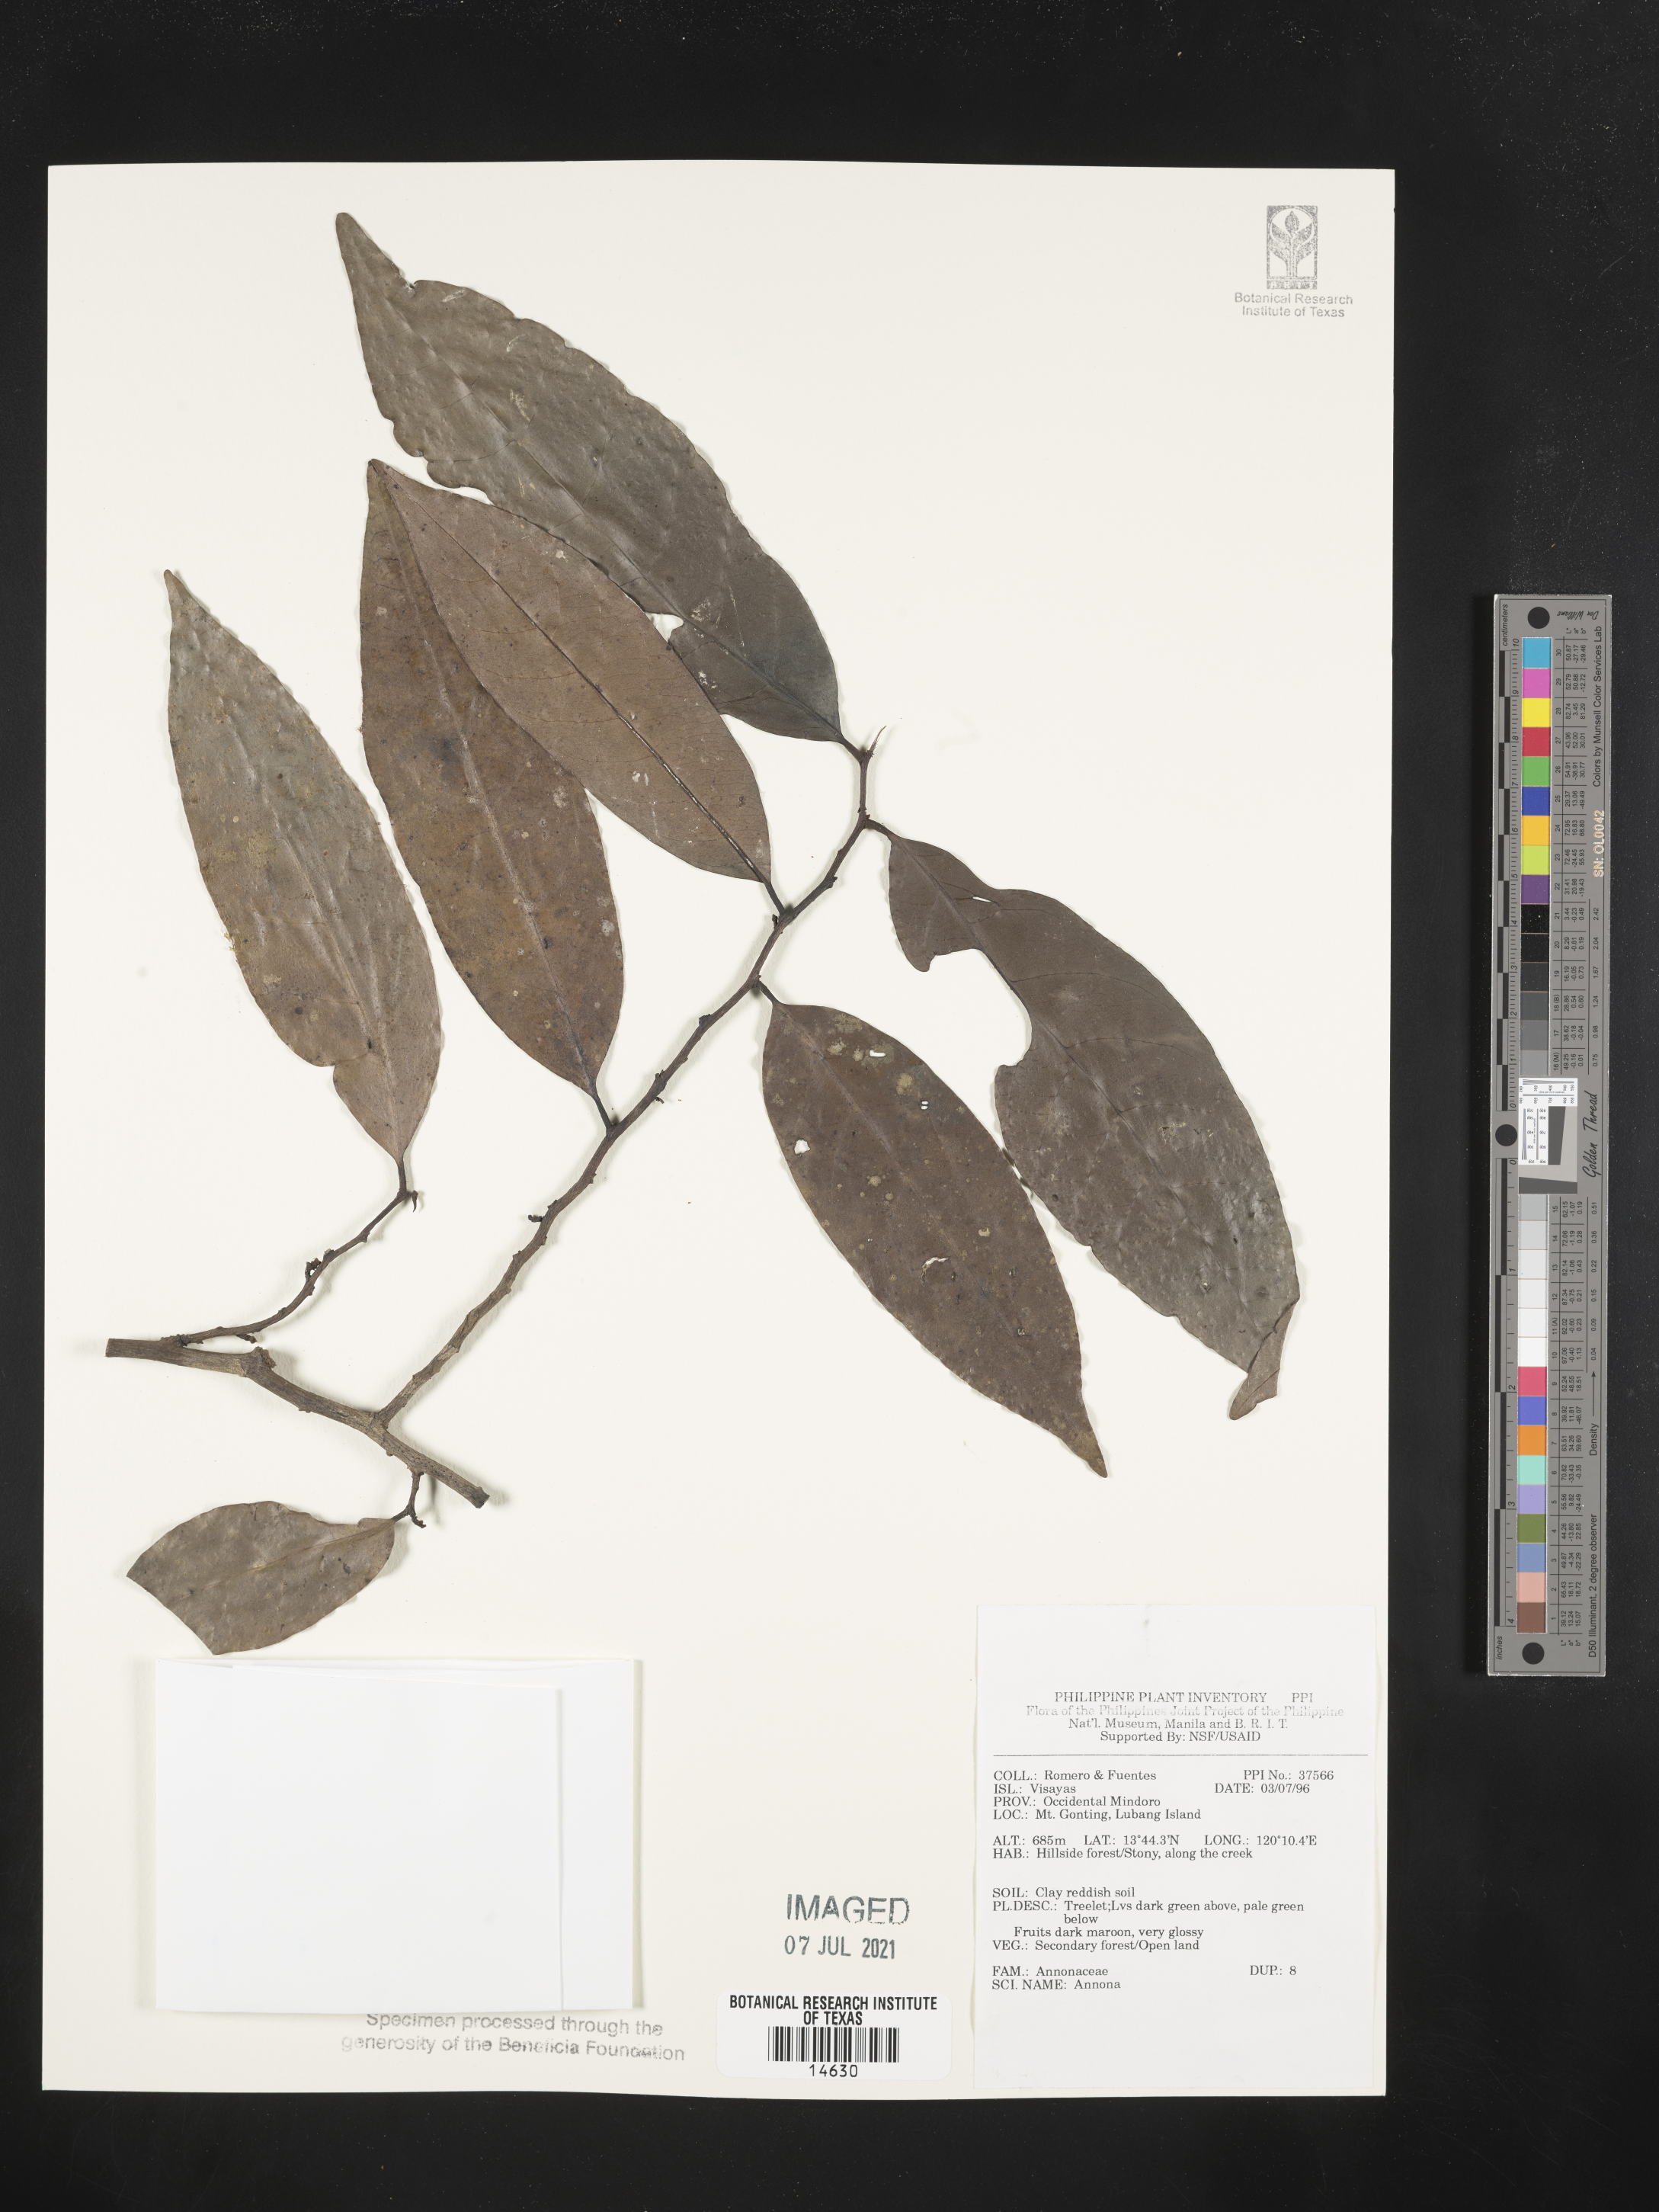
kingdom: Plantae
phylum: Tracheophyta
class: Magnoliopsida
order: Magnoliales
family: Annonaceae
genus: Annona
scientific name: Annona
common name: Anona
